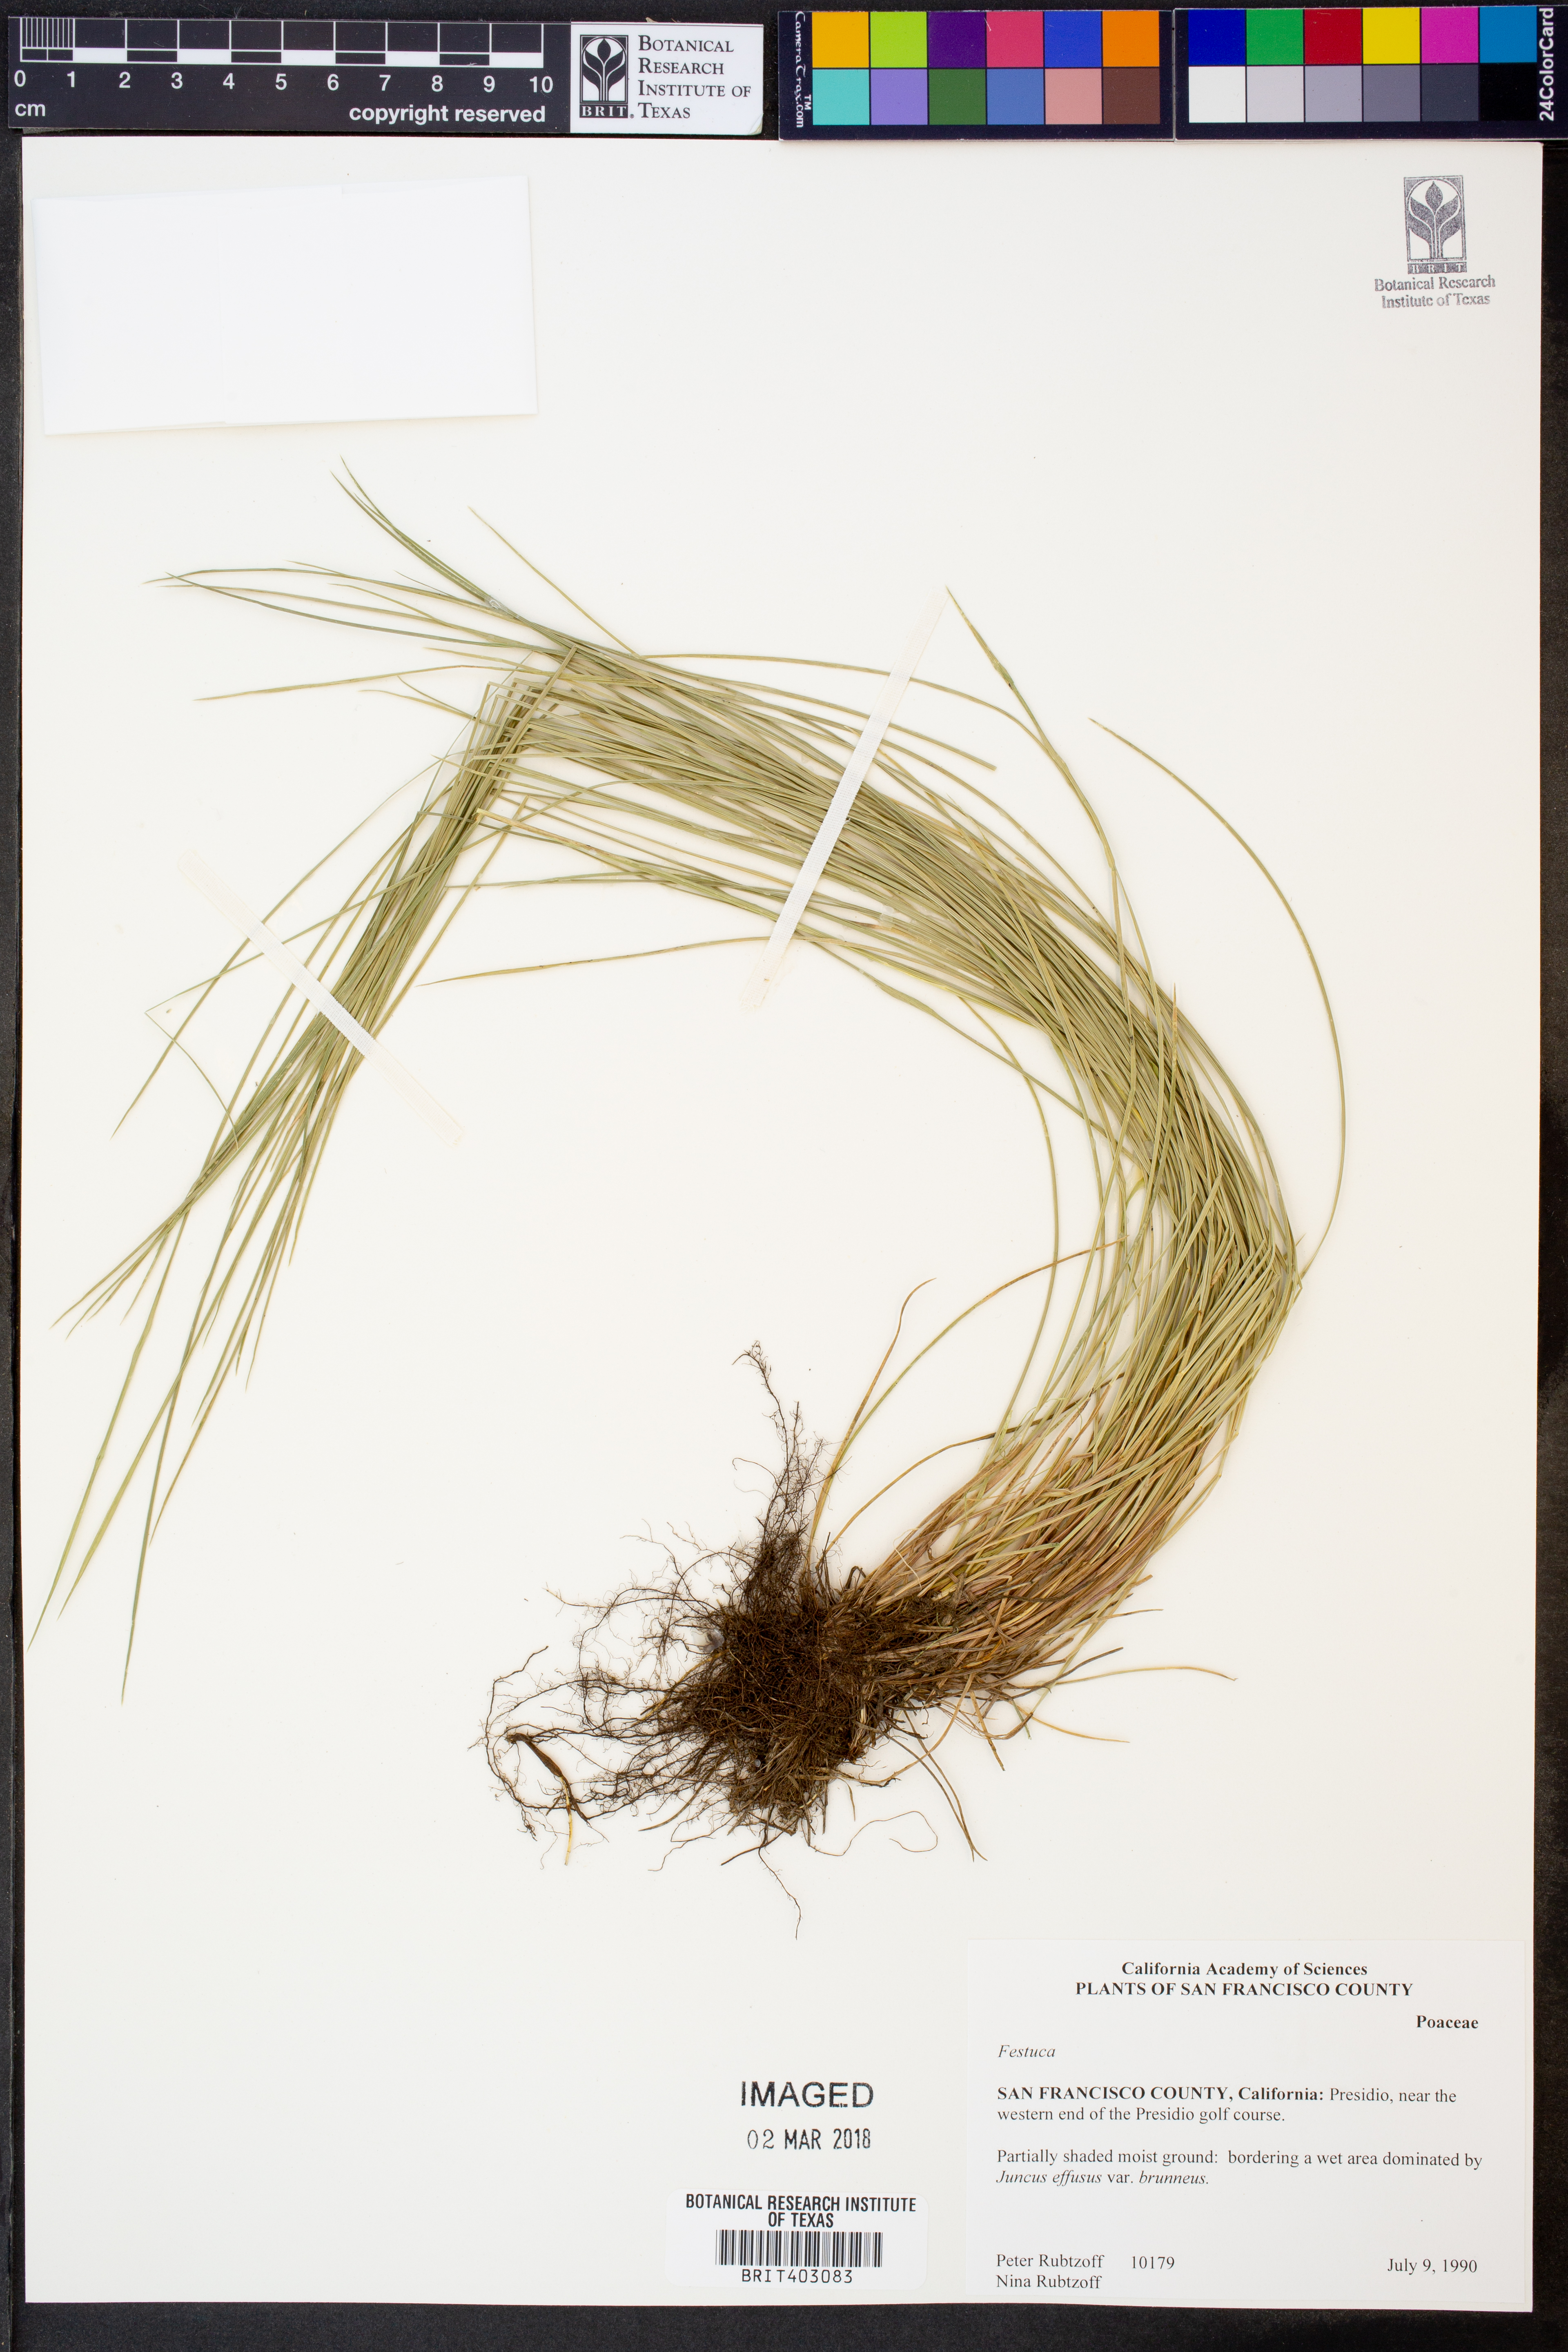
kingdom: Plantae
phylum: Tracheophyta
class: Liliopsida
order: Poales
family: Poaceae
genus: Festuca
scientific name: Festuca
